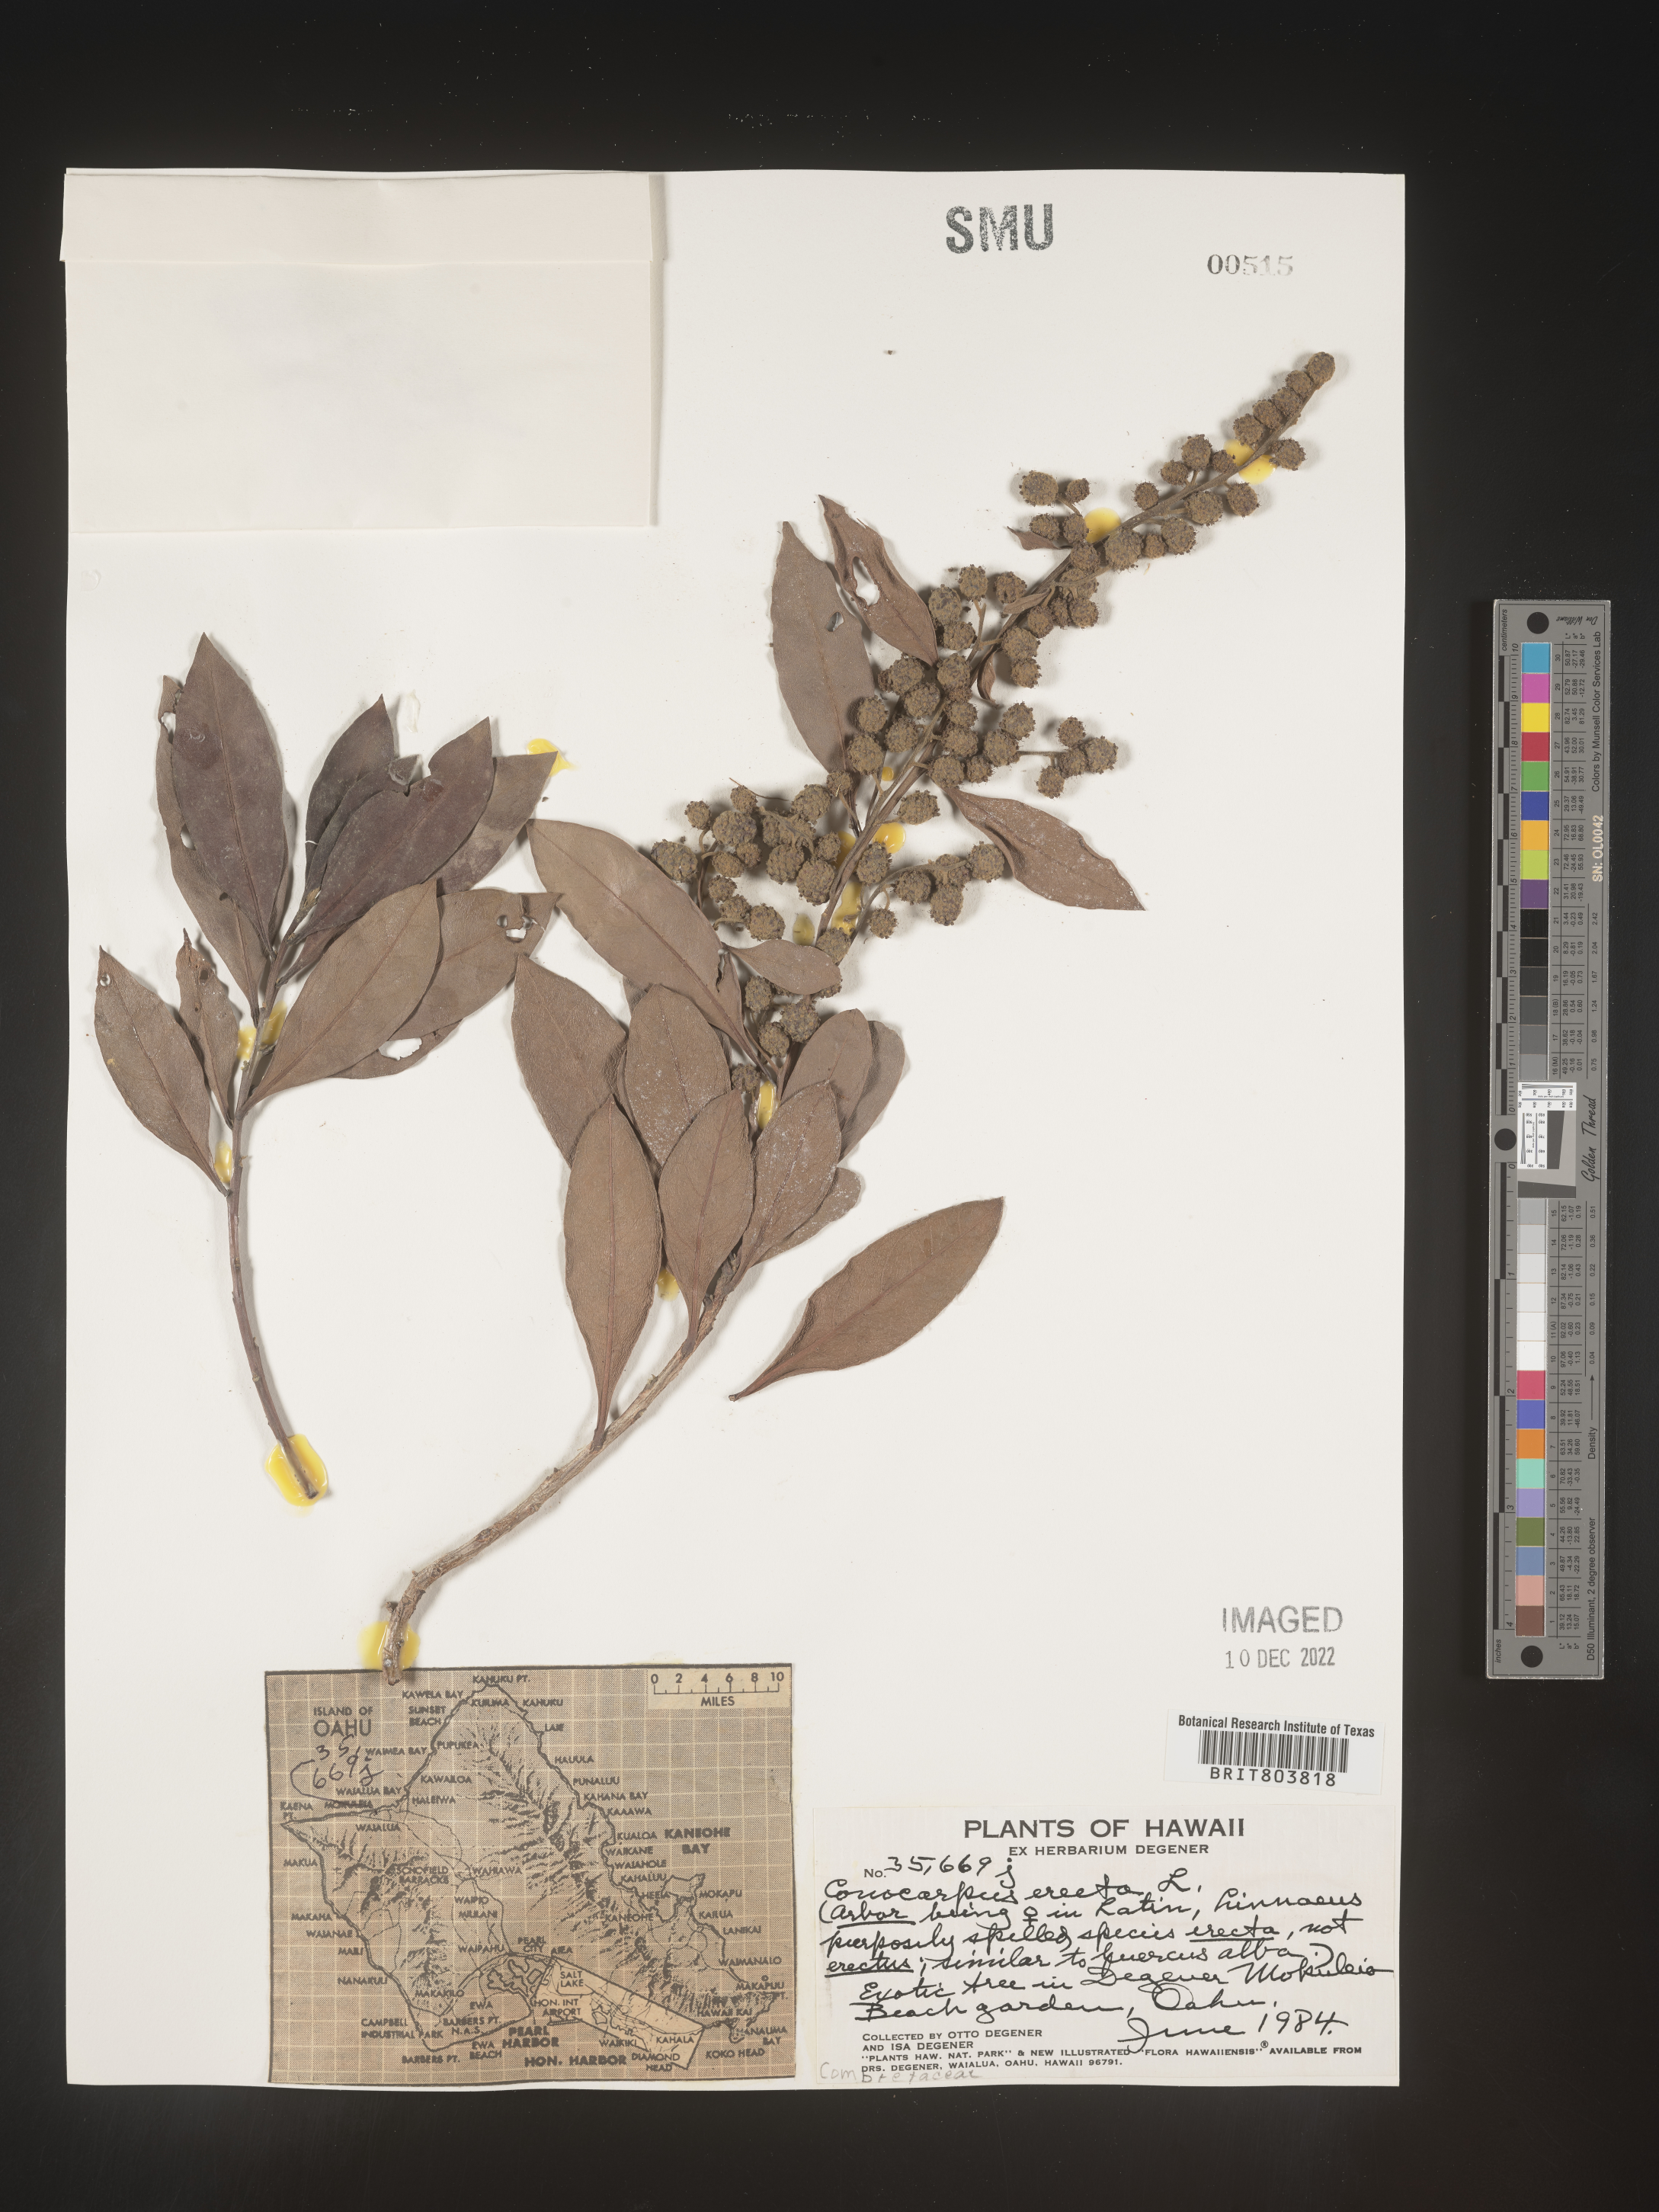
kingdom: Plantae
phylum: Tracheophyta
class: Magnoliopsida
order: Myrtales
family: Combretaceae
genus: Conocarpus
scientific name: Conocarpus
